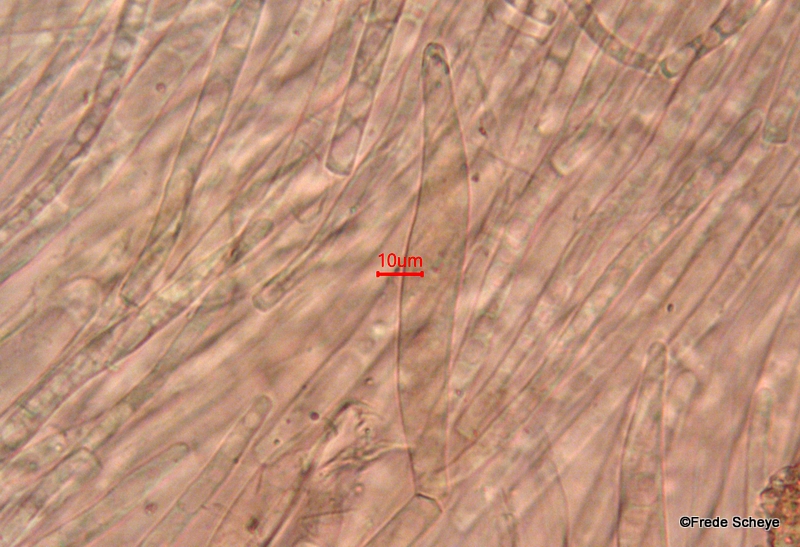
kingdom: Fungi
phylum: Basidiomycota
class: Agaricomycetes
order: Agaricales
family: Pluteaceae
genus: Pluteus
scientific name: Pluteus cervinus
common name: sodfarvet skærmhat
